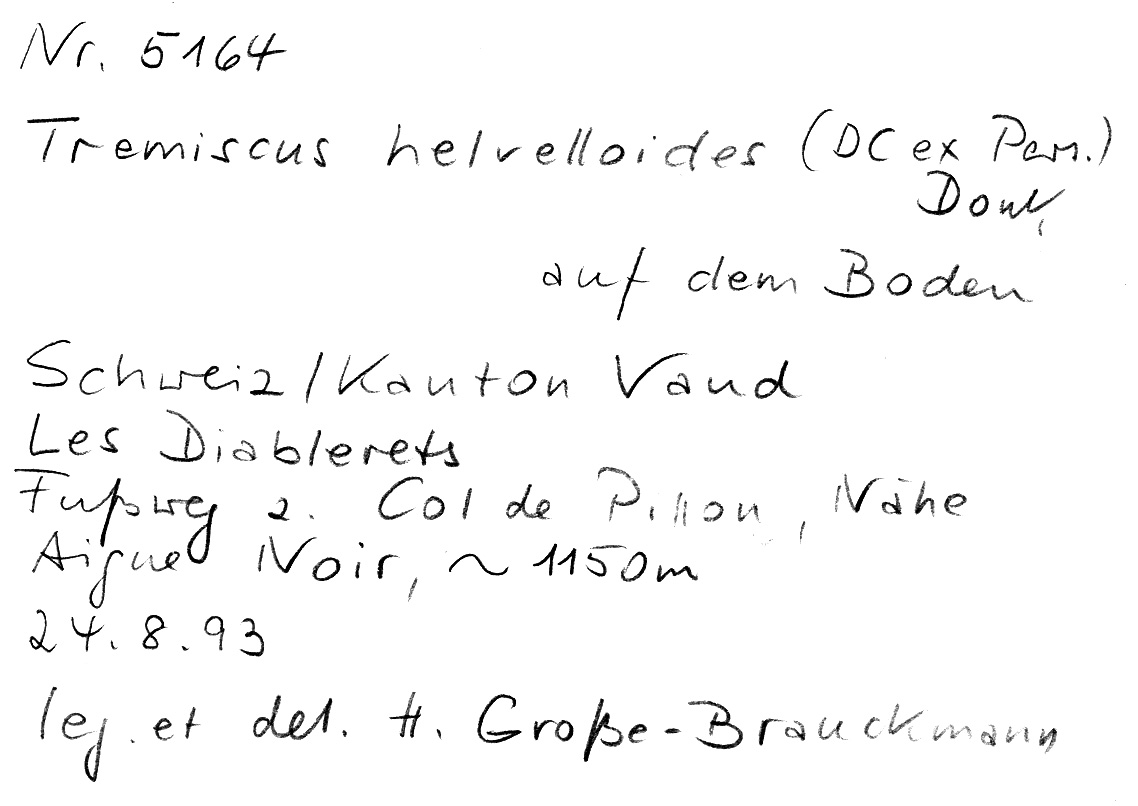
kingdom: Fungi
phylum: Basidiomycota
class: Agaricomycetes
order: Auriculariales
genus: Guepinia
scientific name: Guepinia helvelloides
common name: Salmon salad
